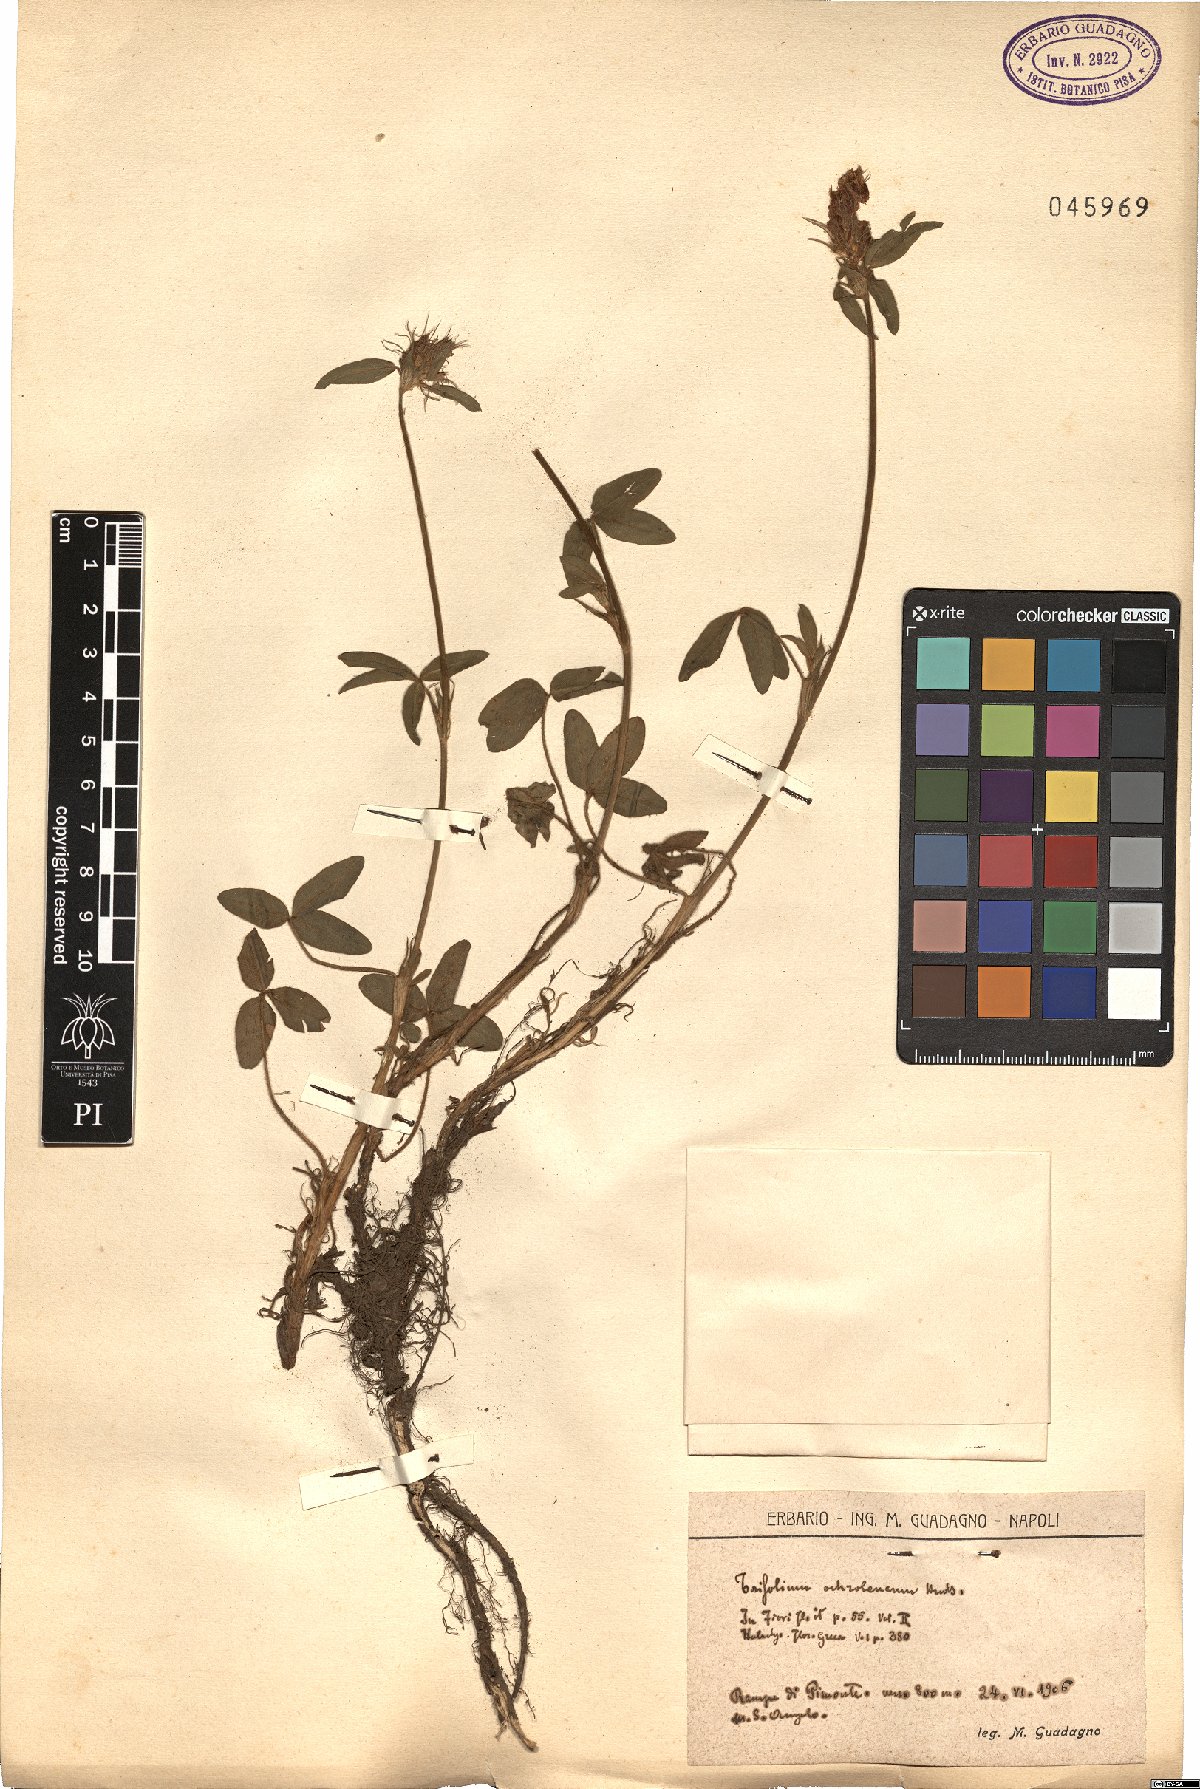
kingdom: Plantae
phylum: Tracheophyta
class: Magnoliopsida
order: Fabales
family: Fabaceae
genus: Trifolium
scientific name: Trifolium ochroleucon
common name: Sulphur clover
